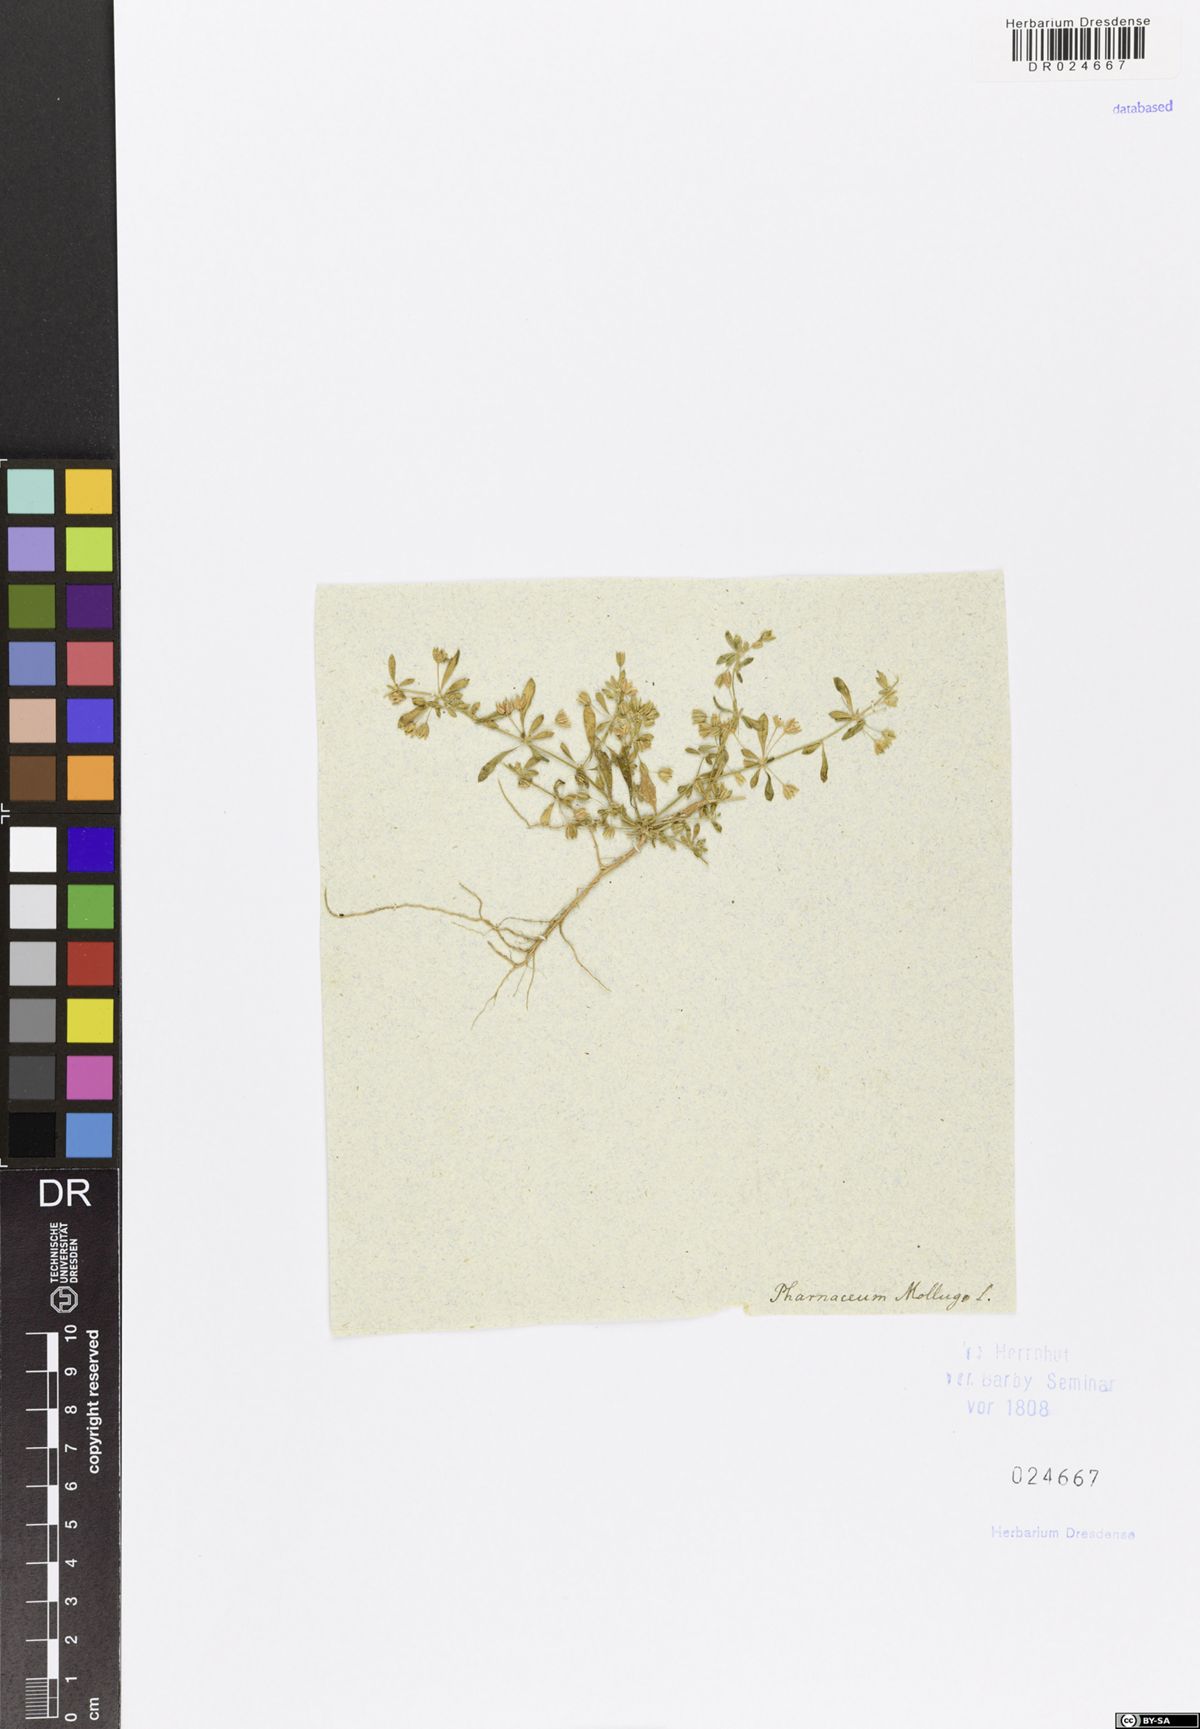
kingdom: Plantae
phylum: Tracheophyta
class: Magnoliopsida
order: Caryophyllales
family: Molluginaceae
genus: Hypertelis
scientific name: Hypertelis cerviana
